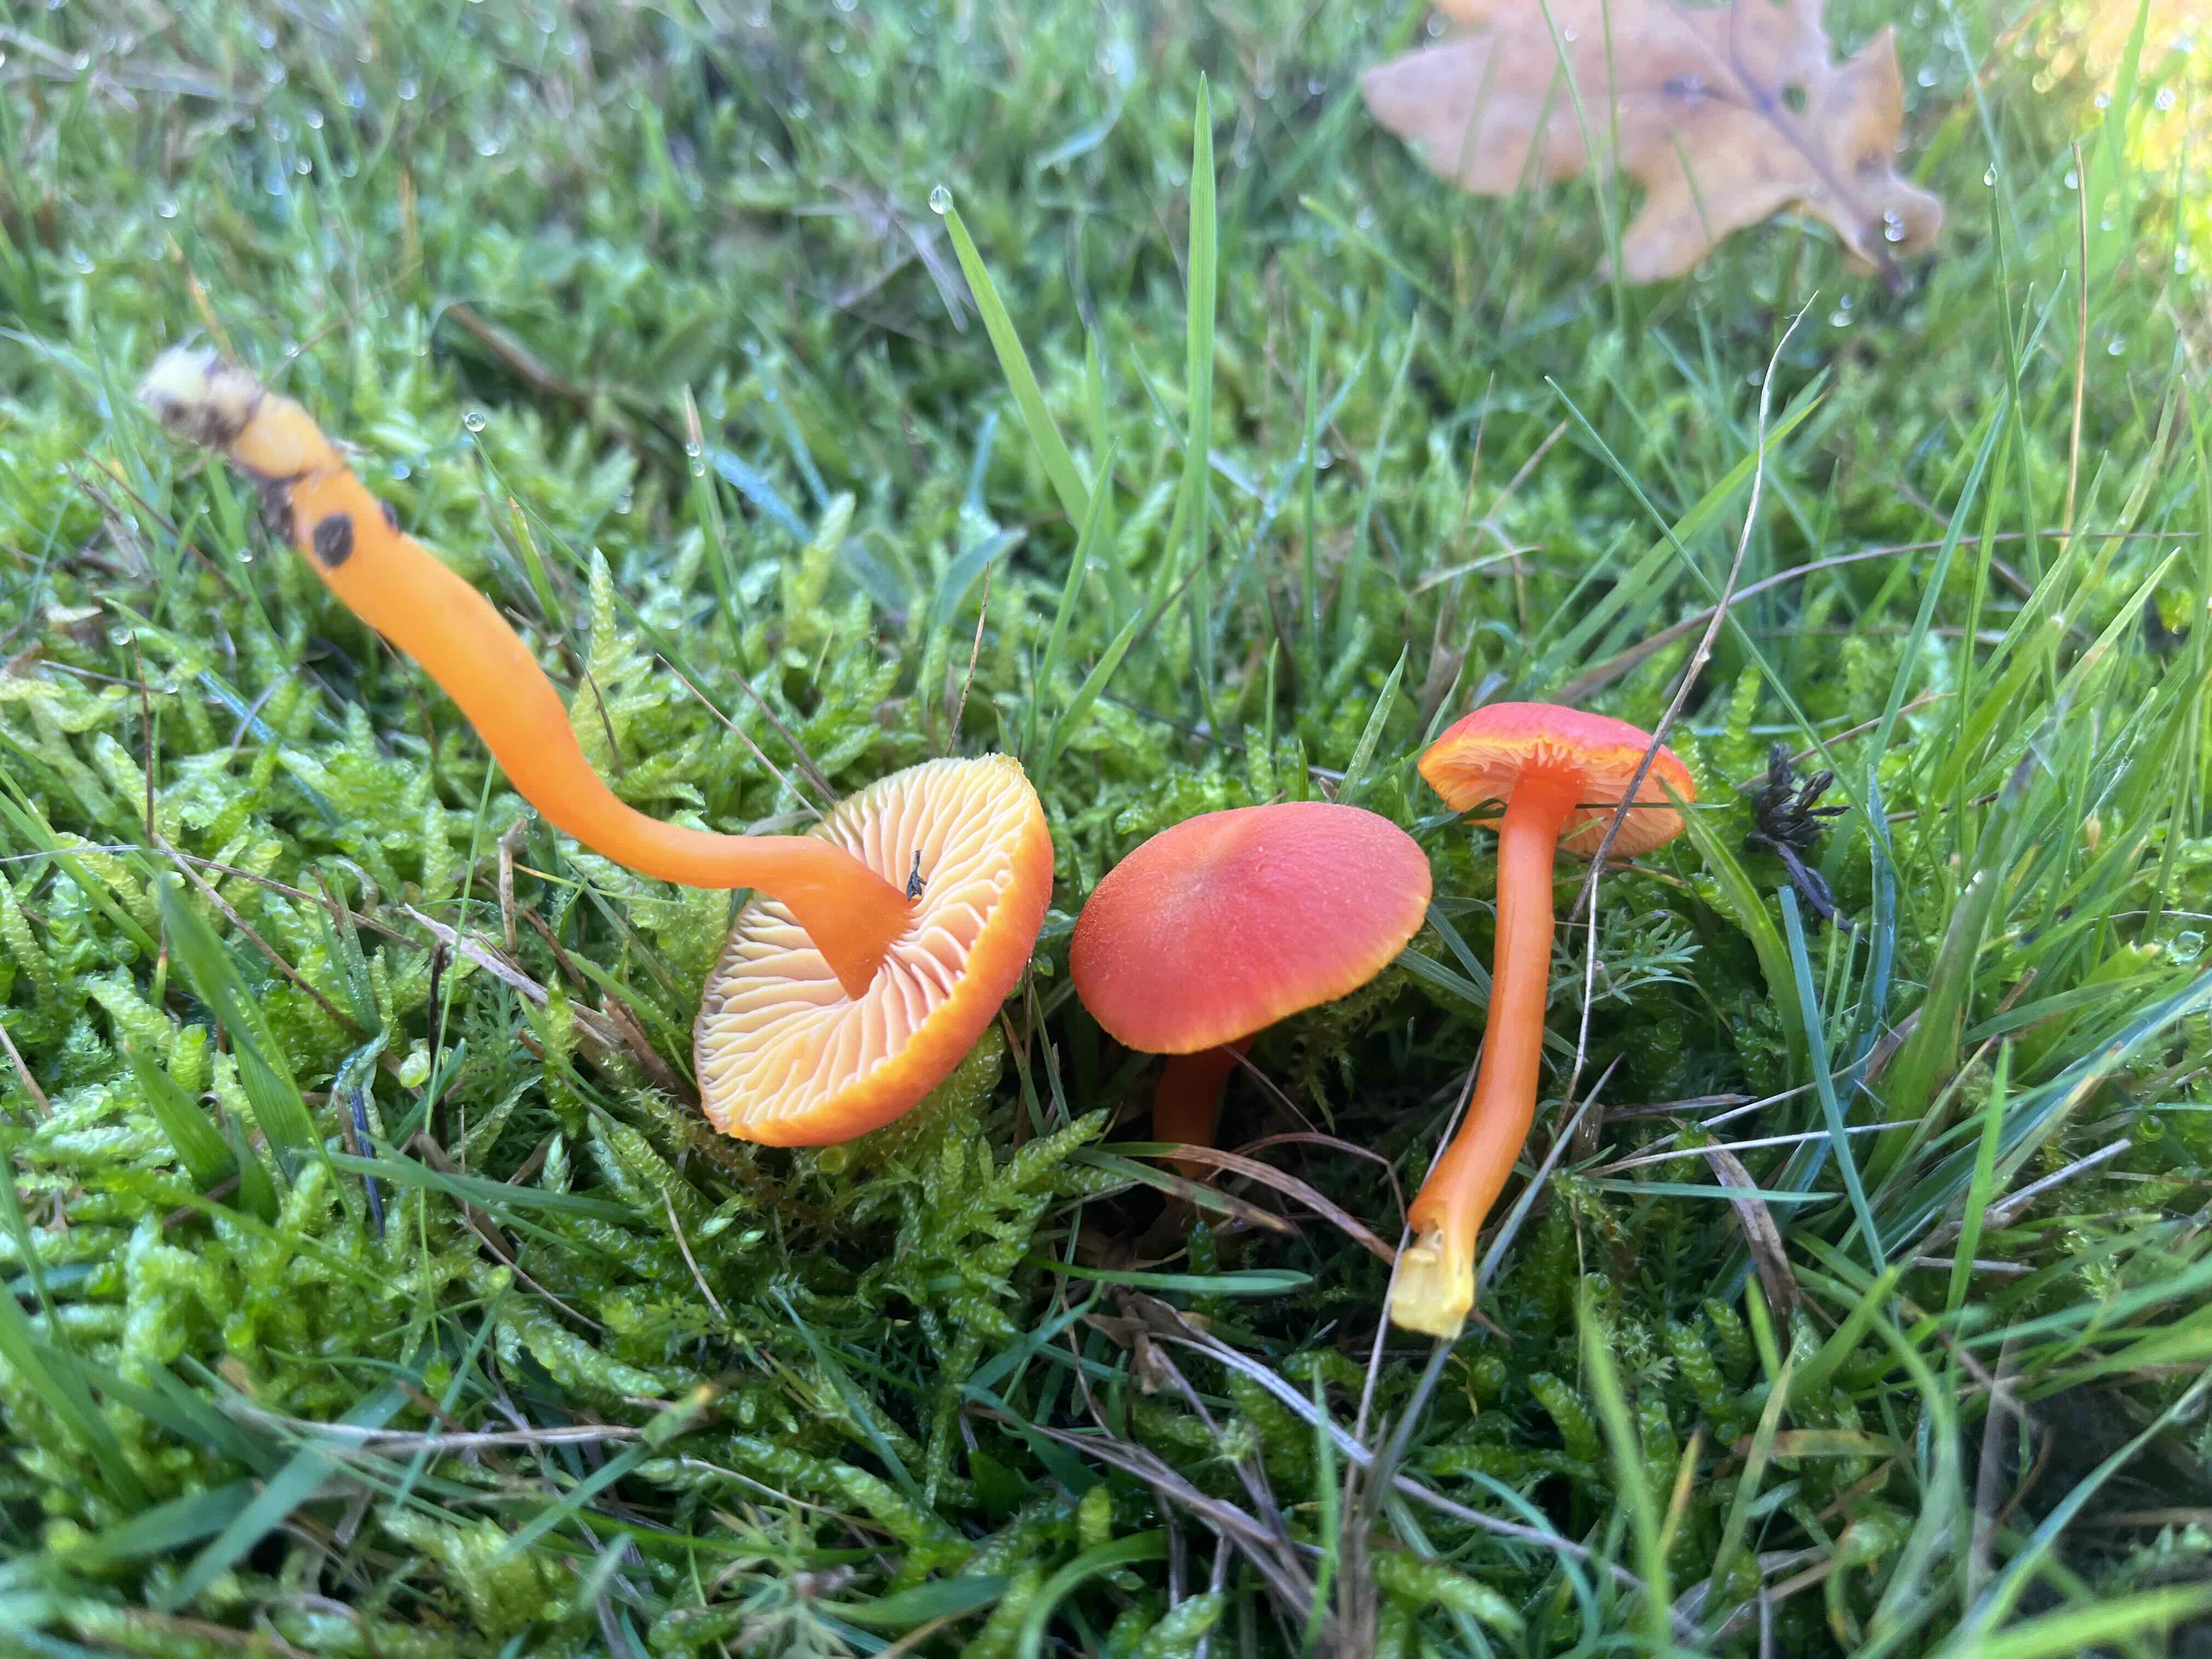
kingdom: Fungi
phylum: Basidiomycota
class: Agaricomycetes
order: Agaricales
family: Hygrophoraceae
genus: Hygrocybe
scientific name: Hygrocybe miniata
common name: mønje-vokshat
